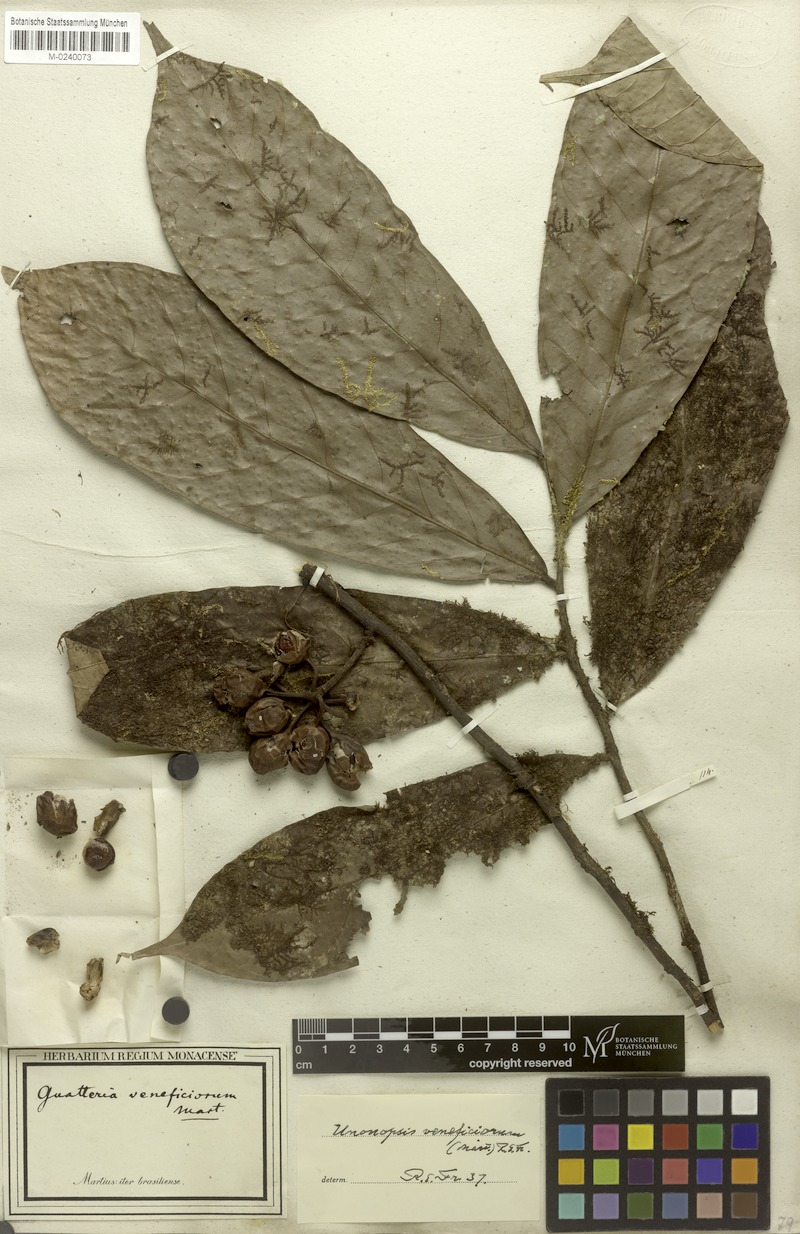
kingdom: Plantae
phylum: Tracheophyta
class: Magnoliopsida
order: Magnoliales
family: Annonaceae
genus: Unonopsis
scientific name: Unonopsis veneficiorum
